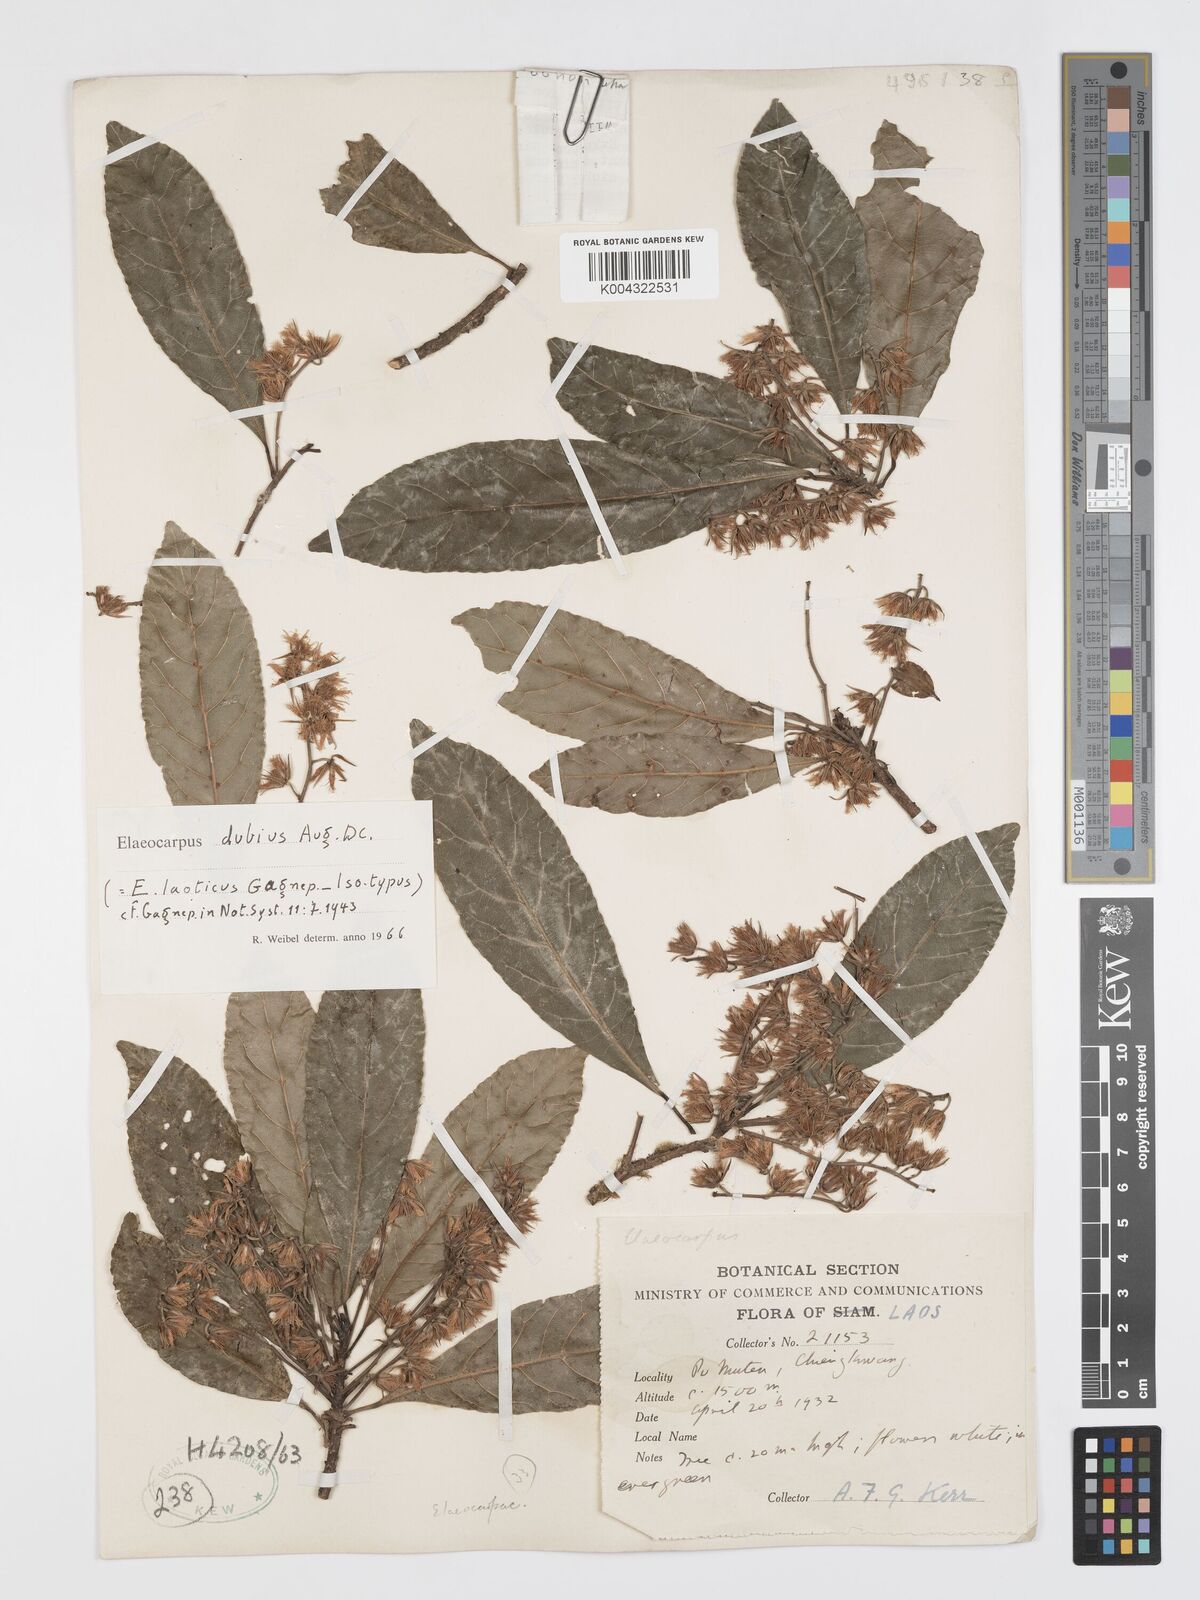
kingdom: Plantae
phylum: Tracheophyta
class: Magnoliopsida
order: Oxalidales
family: Elaeocarpaceae
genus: Elaeocarpus
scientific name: Elaeocarpus dubius
